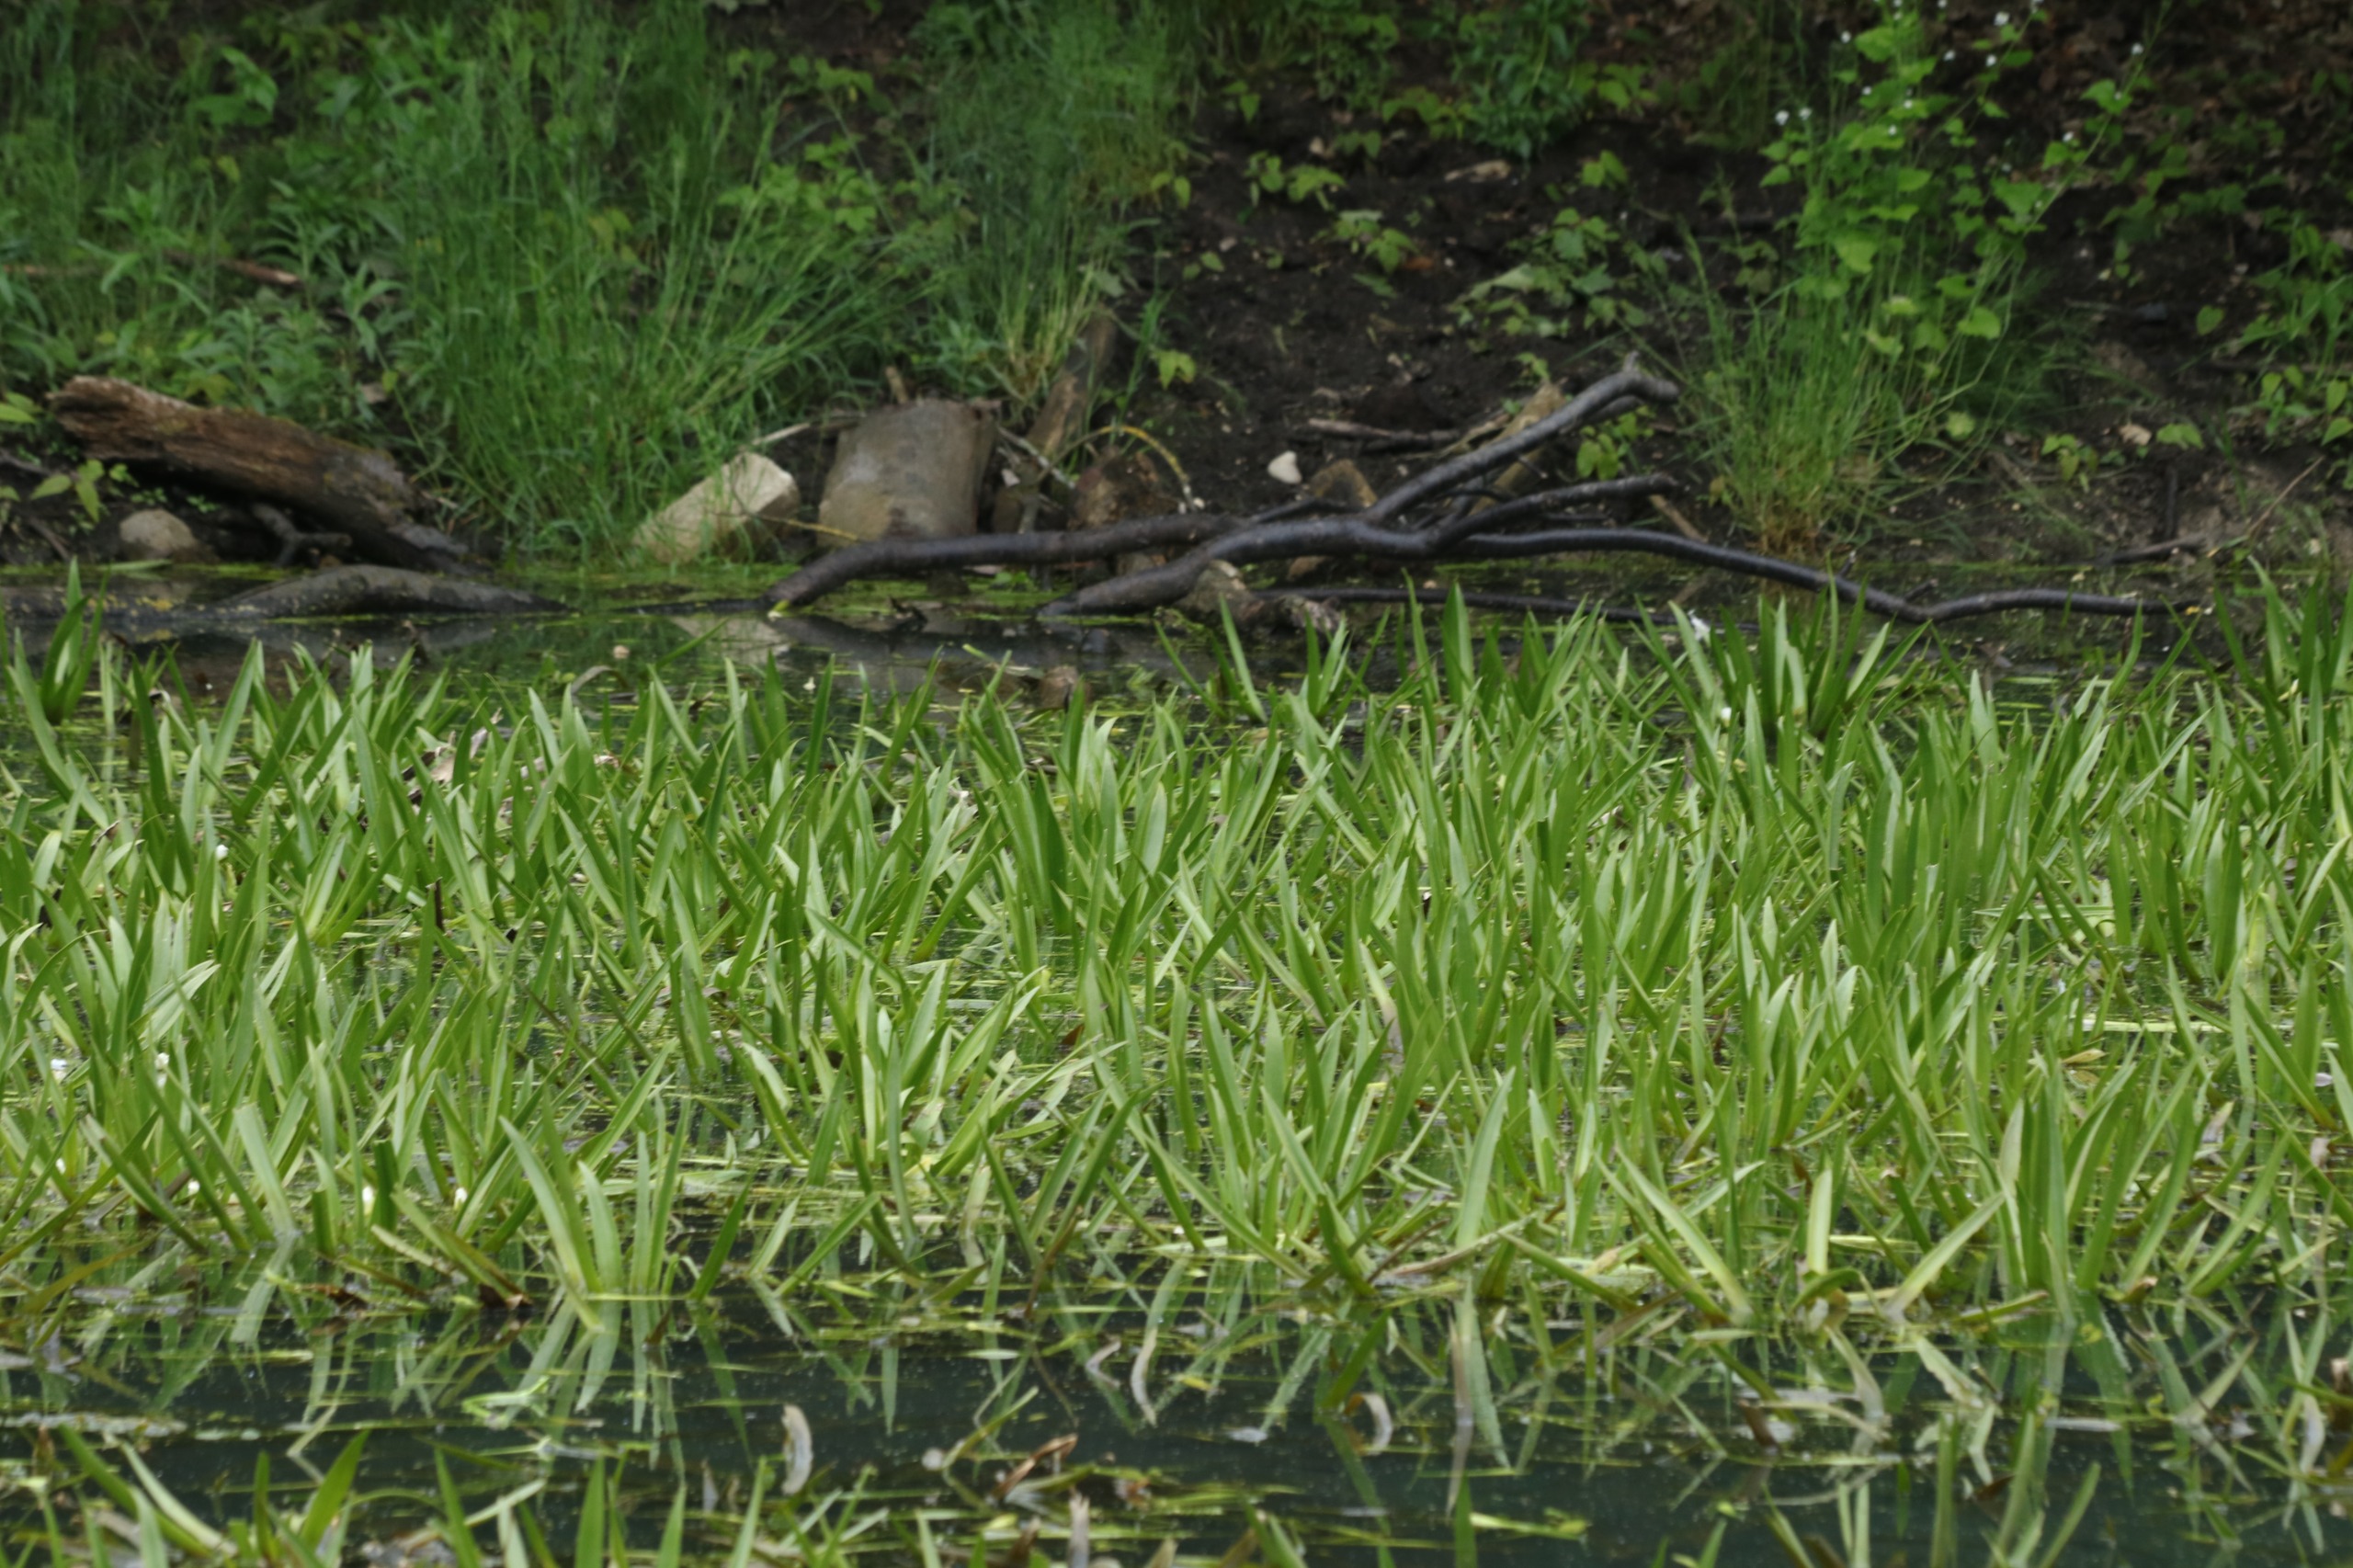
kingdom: Plantae
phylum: Tracheophyta
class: Liliopsida
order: Alismatales
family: Hydrocharitaceae
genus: Stratiotes
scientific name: Stratiotes aloides
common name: Krebseklo
